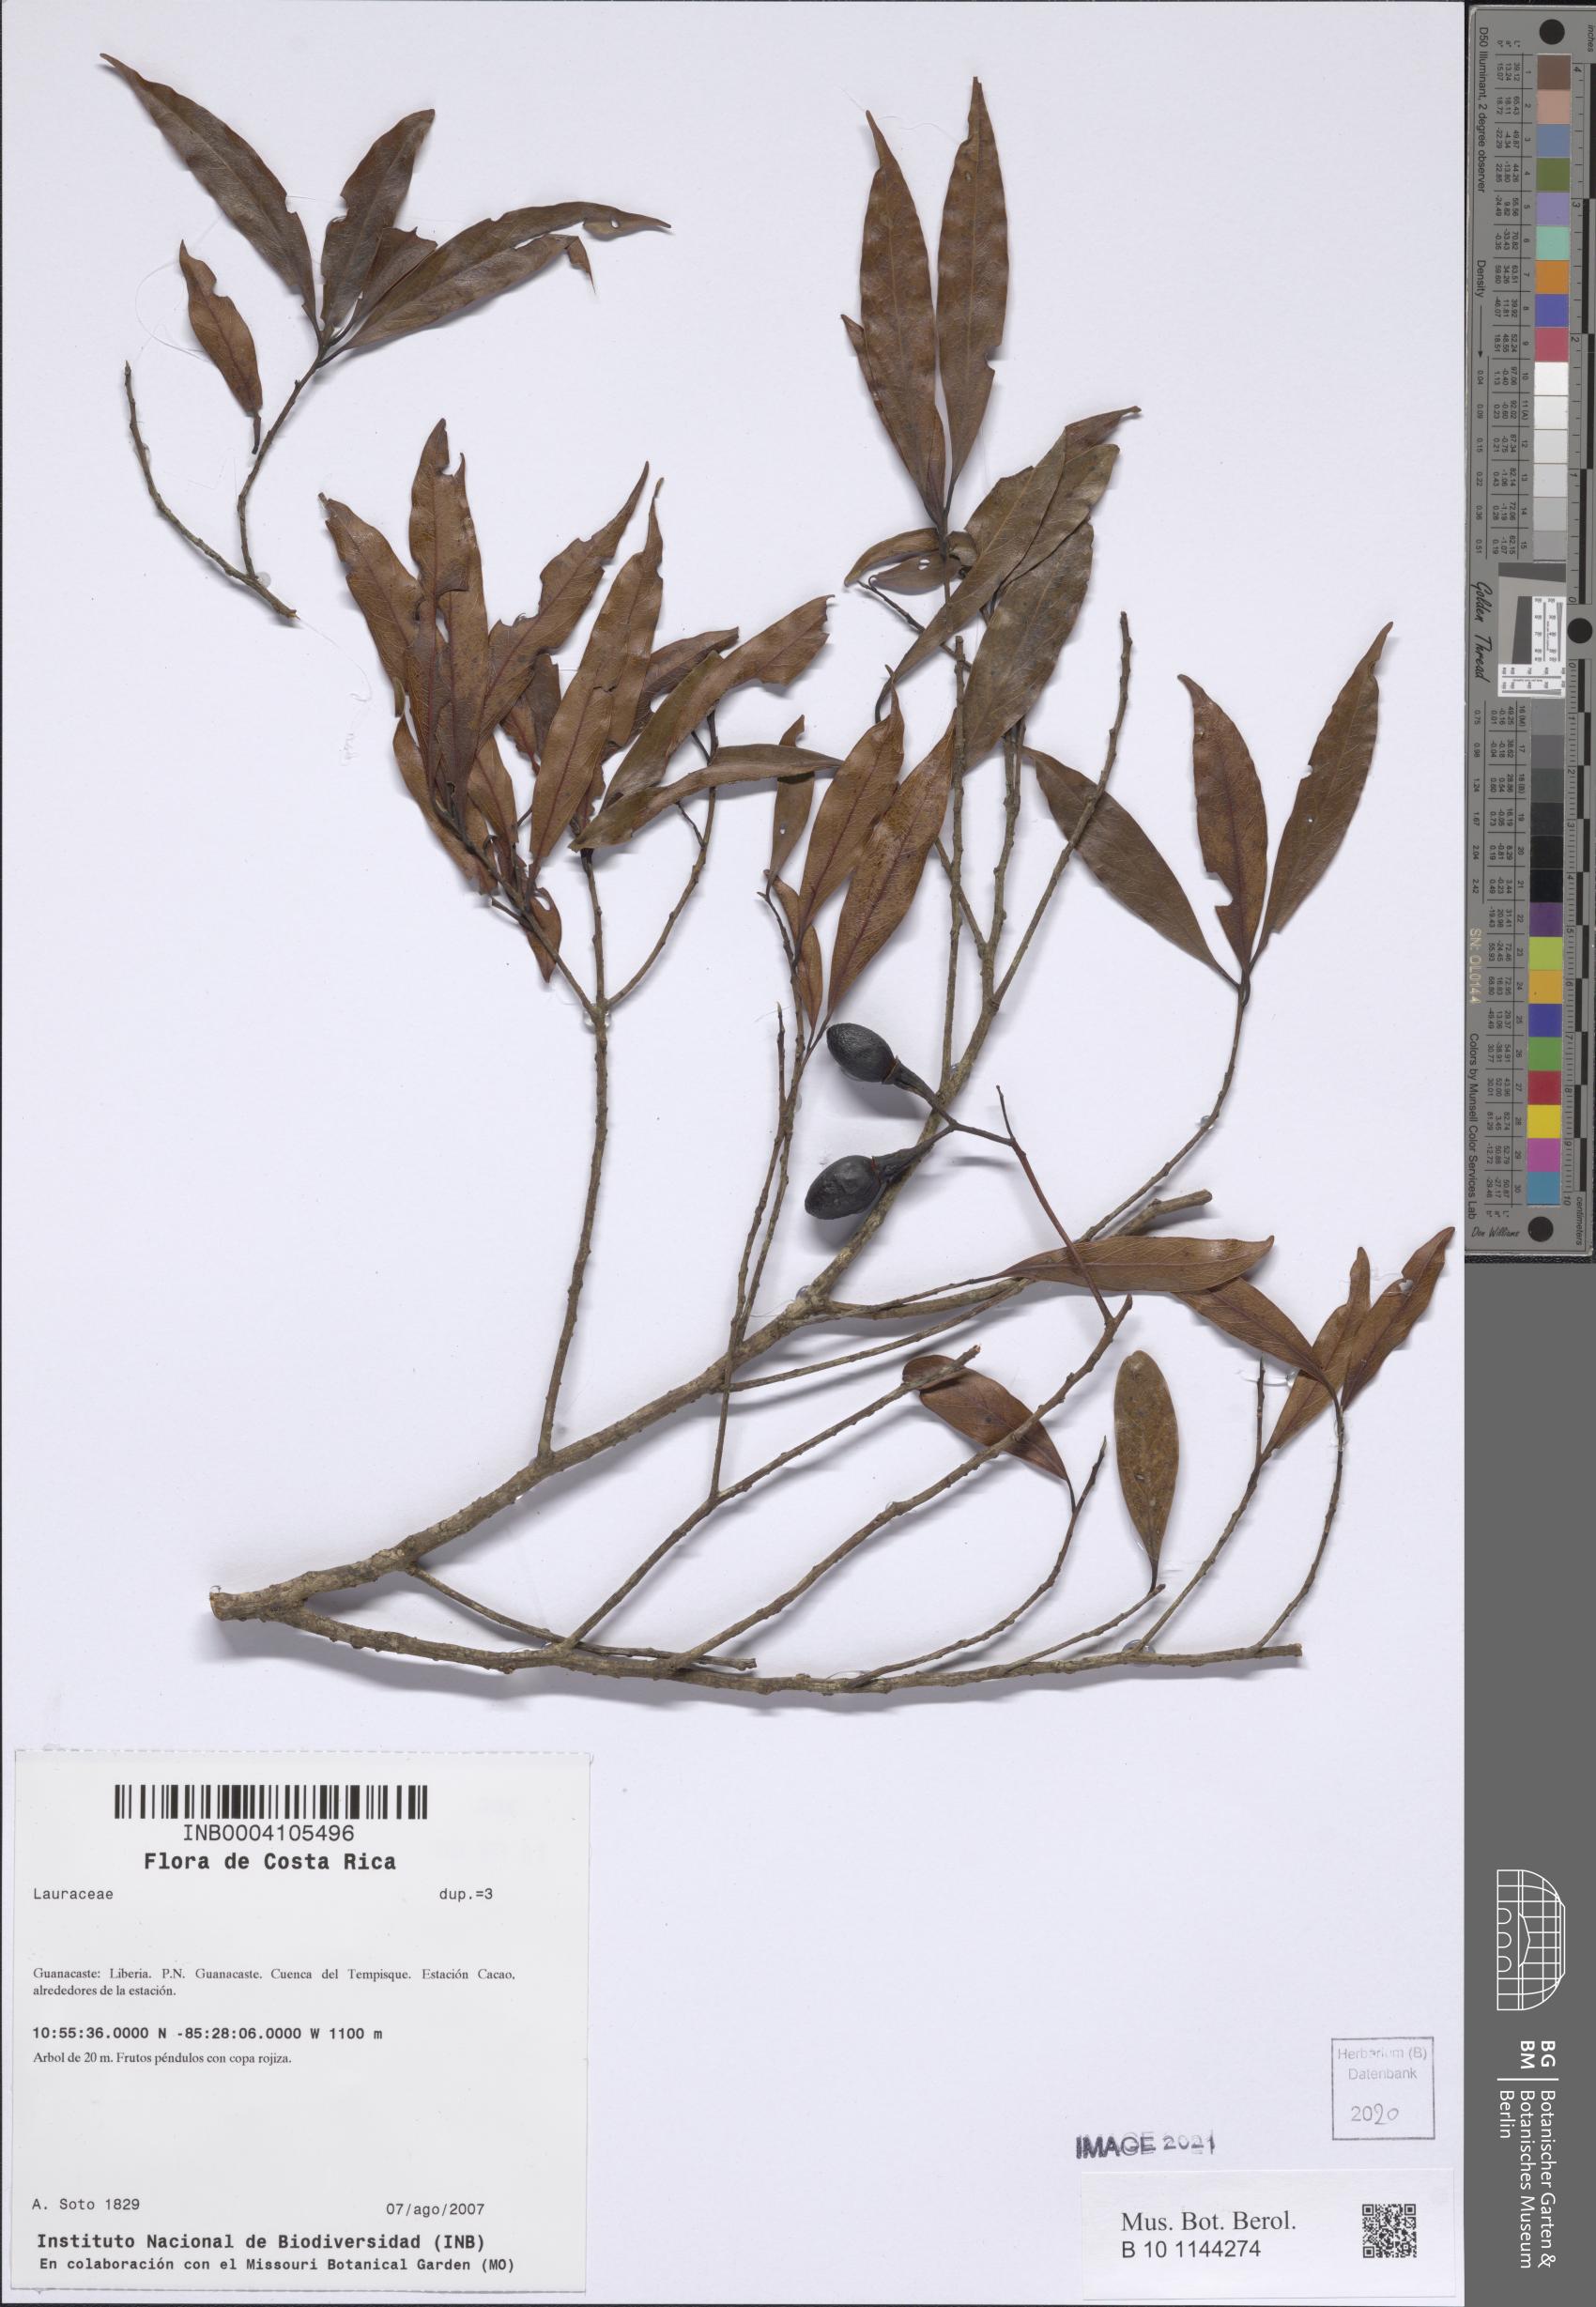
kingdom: Plantae
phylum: Tracheophyta
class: Magnoliopsida
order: Laurales
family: Lauraceae
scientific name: Lauraceae
